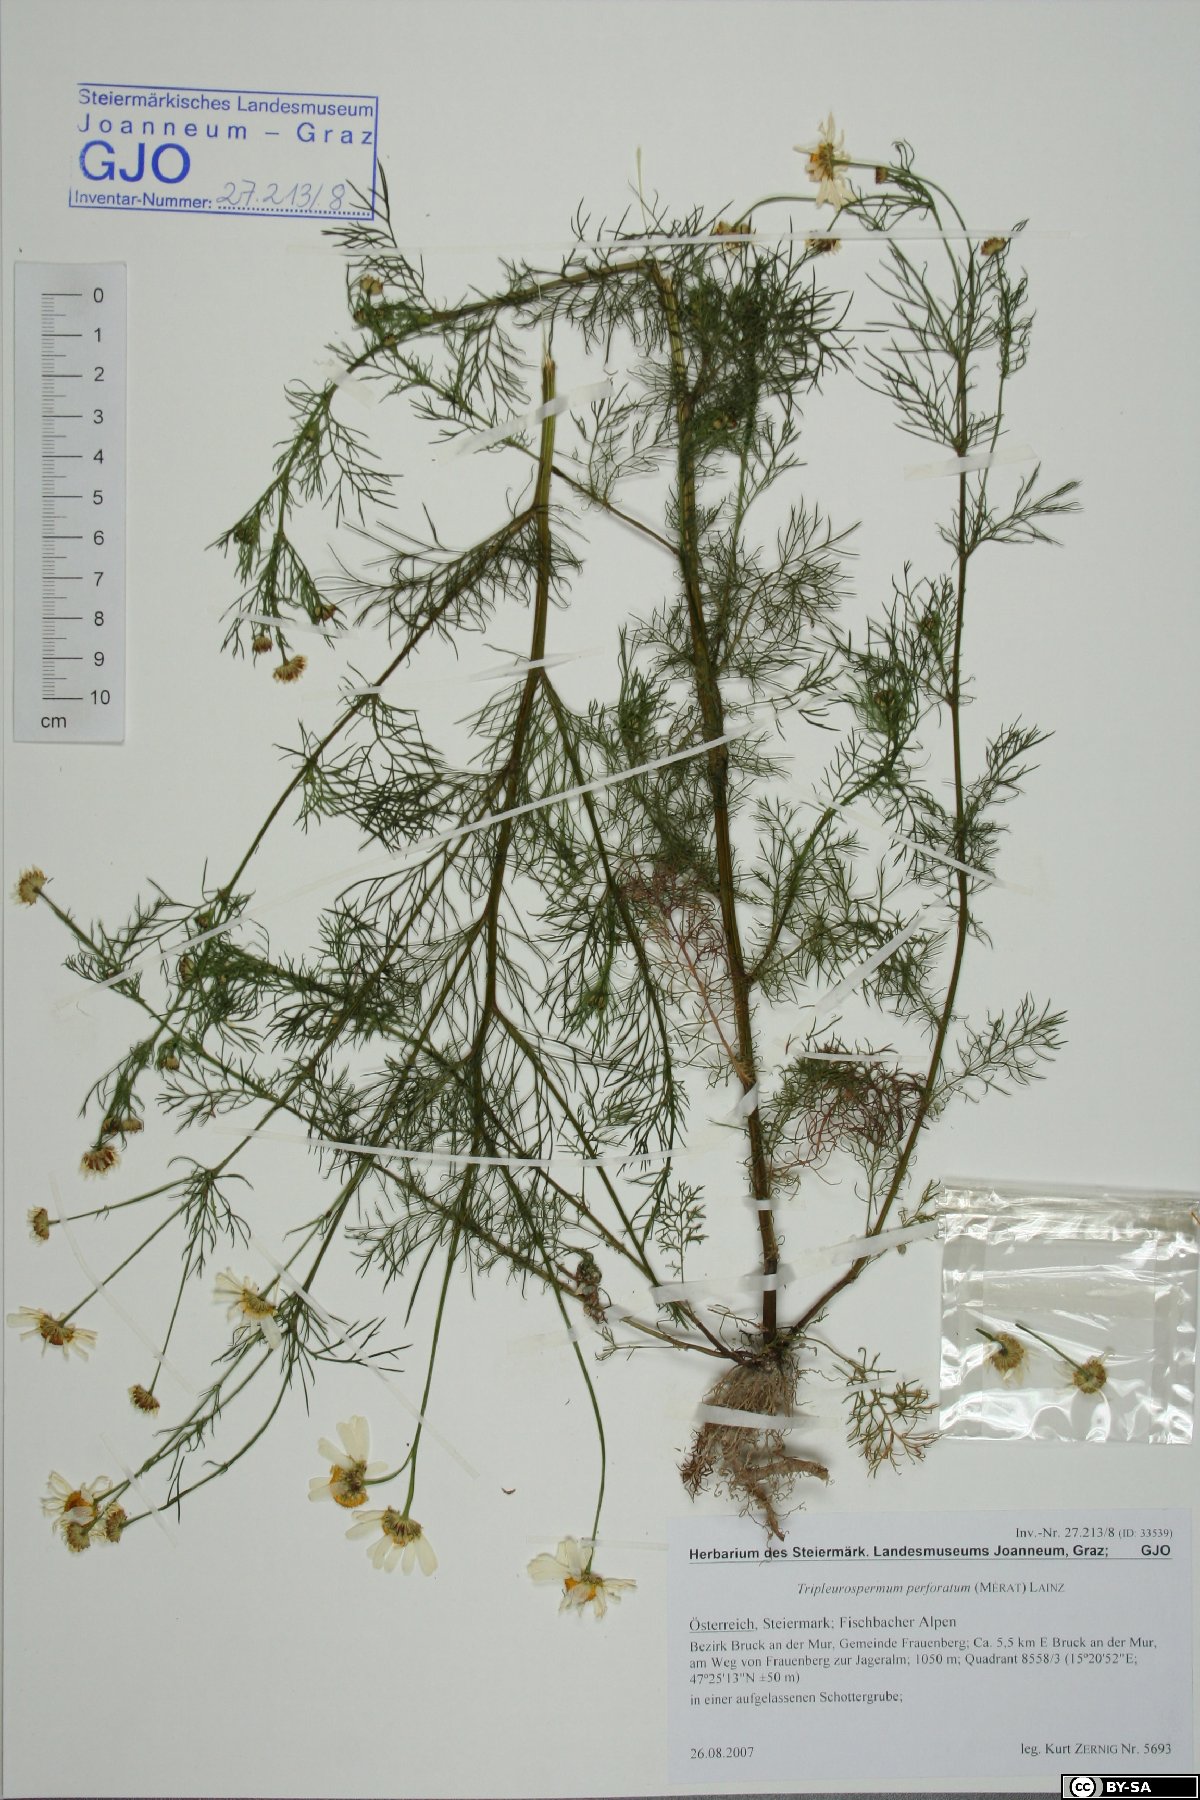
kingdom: Plantae
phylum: Tracheophyta
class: Magnoliopsida
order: Asterales
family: Asteraceae
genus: Tripleurospermum
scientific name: Tripleurospermum inodorum
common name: Scentless mayweed
